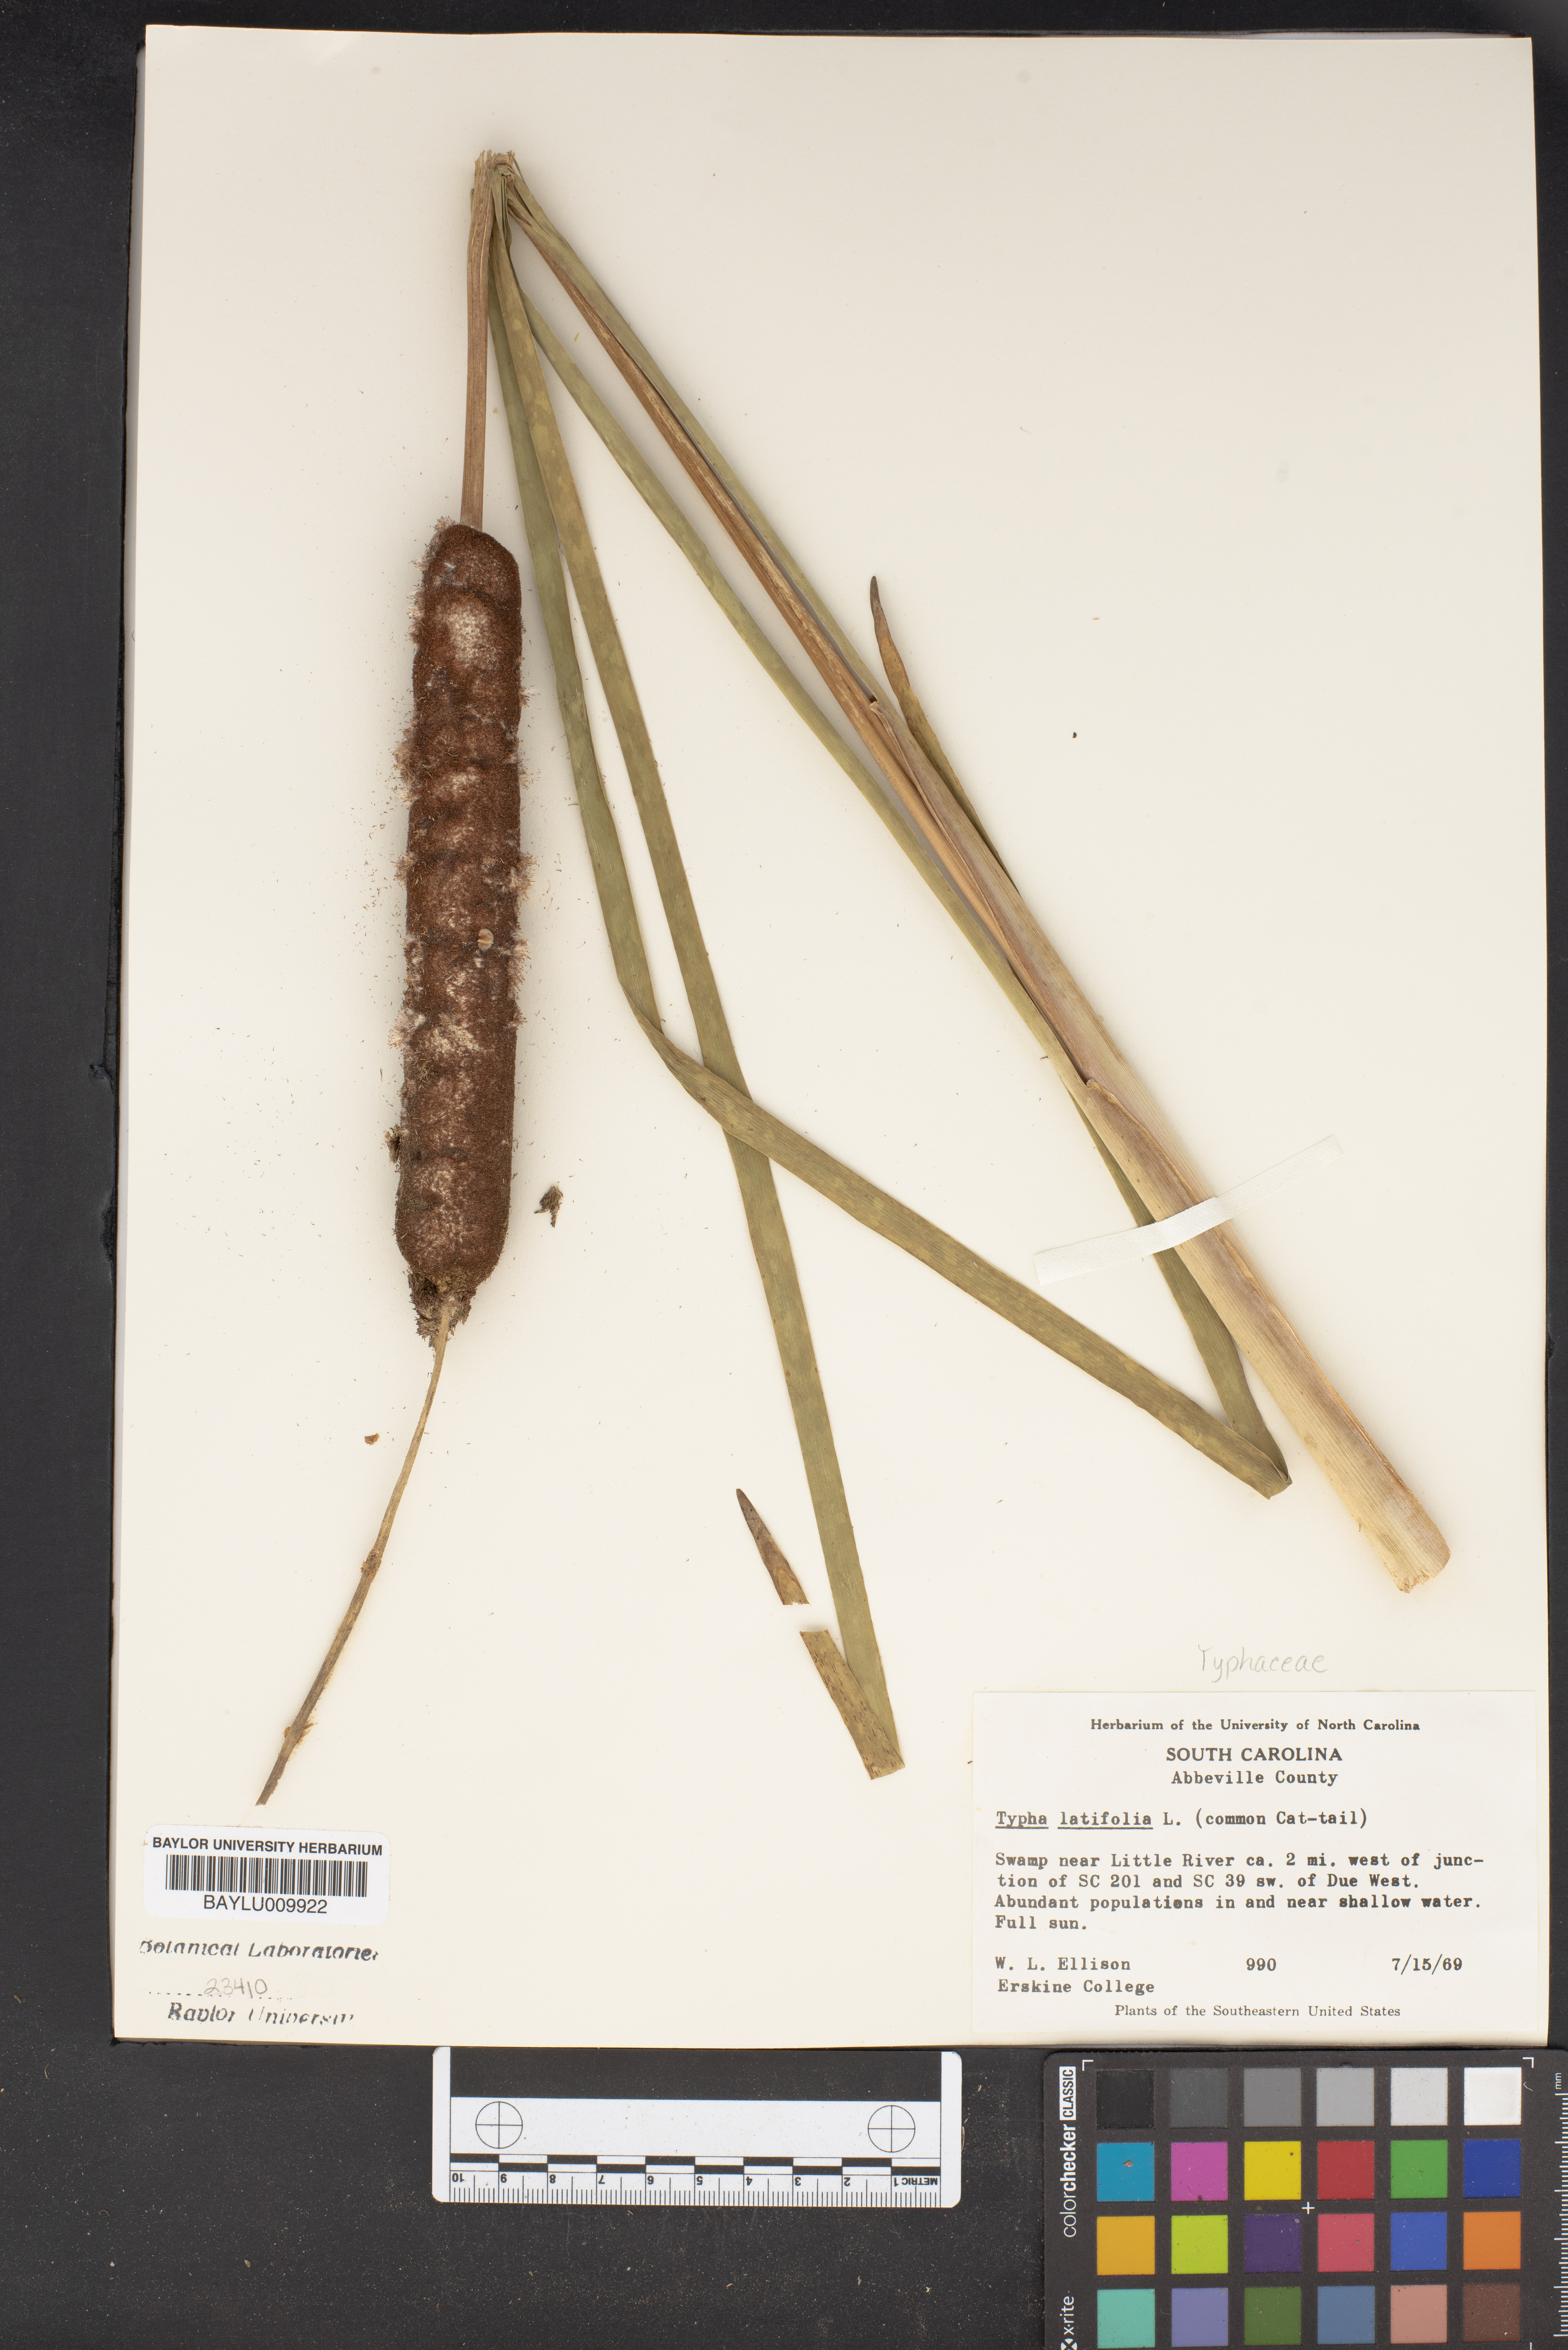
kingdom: Plantae
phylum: Tracheophyta
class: Liliopsida
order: Poales
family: Typhaceae
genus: Typha
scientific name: Typha latifolia
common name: Broadleaf cattail
